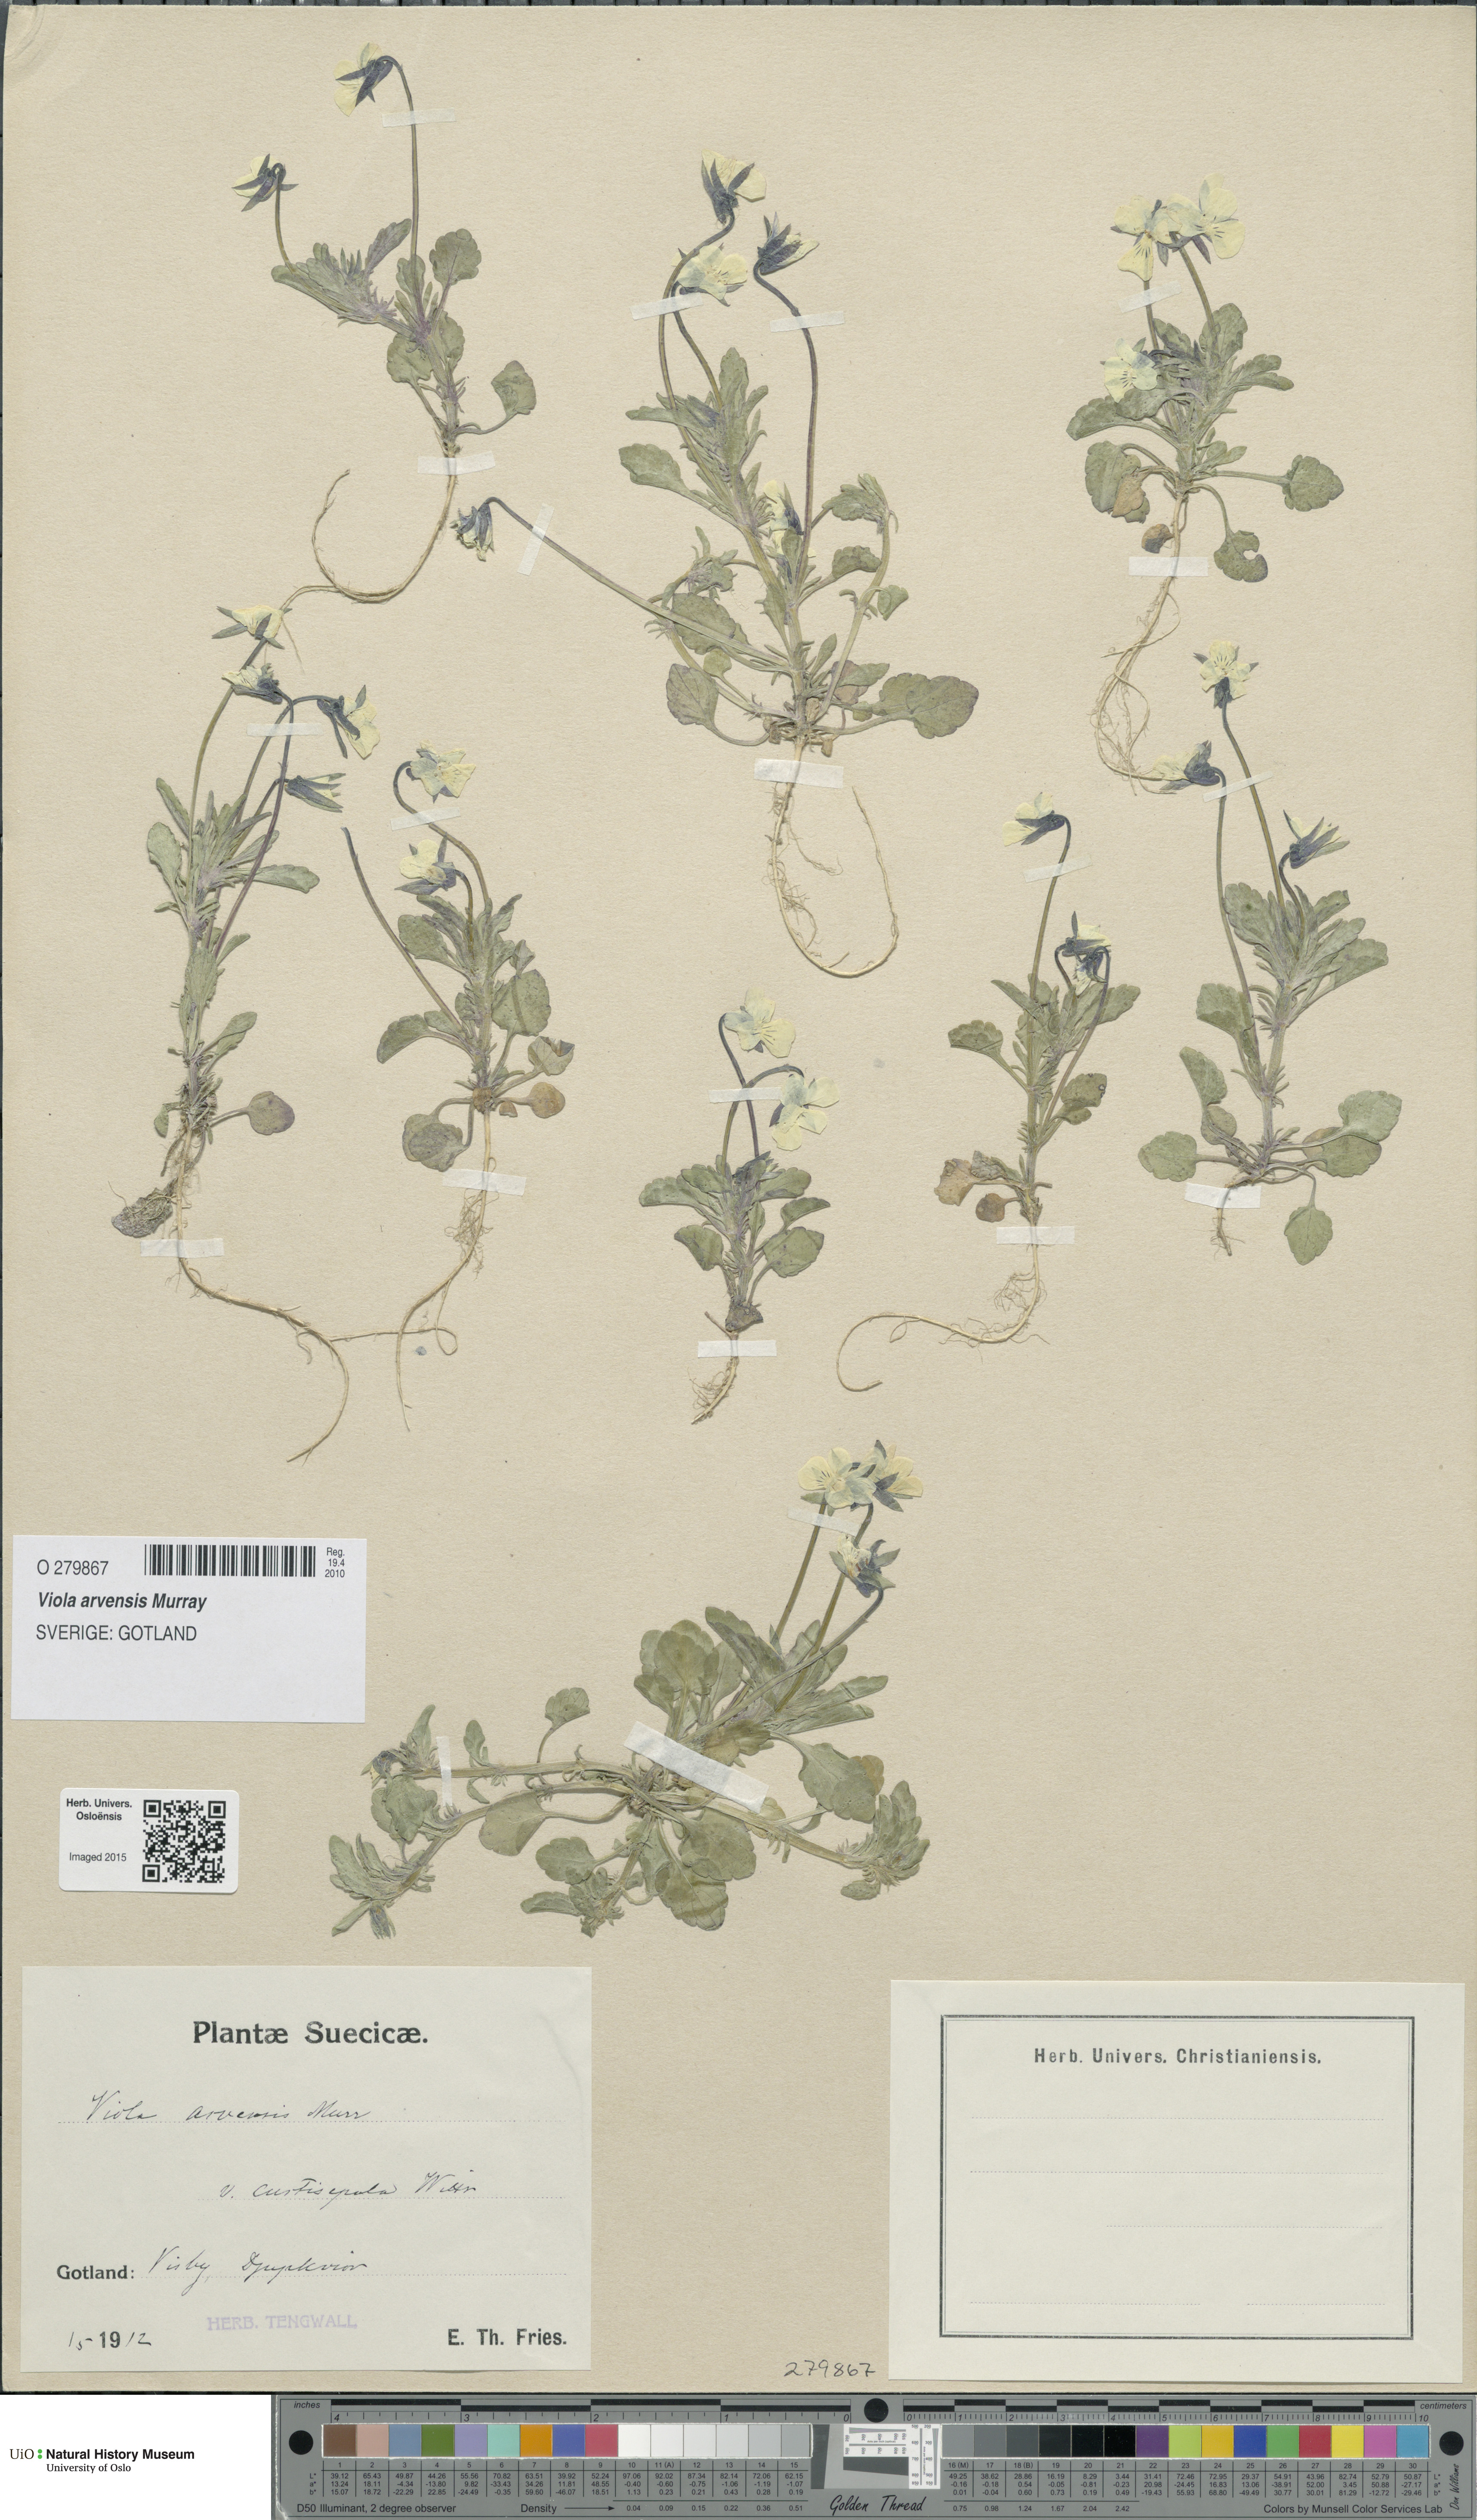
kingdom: Plantae
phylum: Tracheophyta
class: Magnoliopsida
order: Malpighiales
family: Violaceae
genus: Viola
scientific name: Viola arvensis
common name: Field pansy
